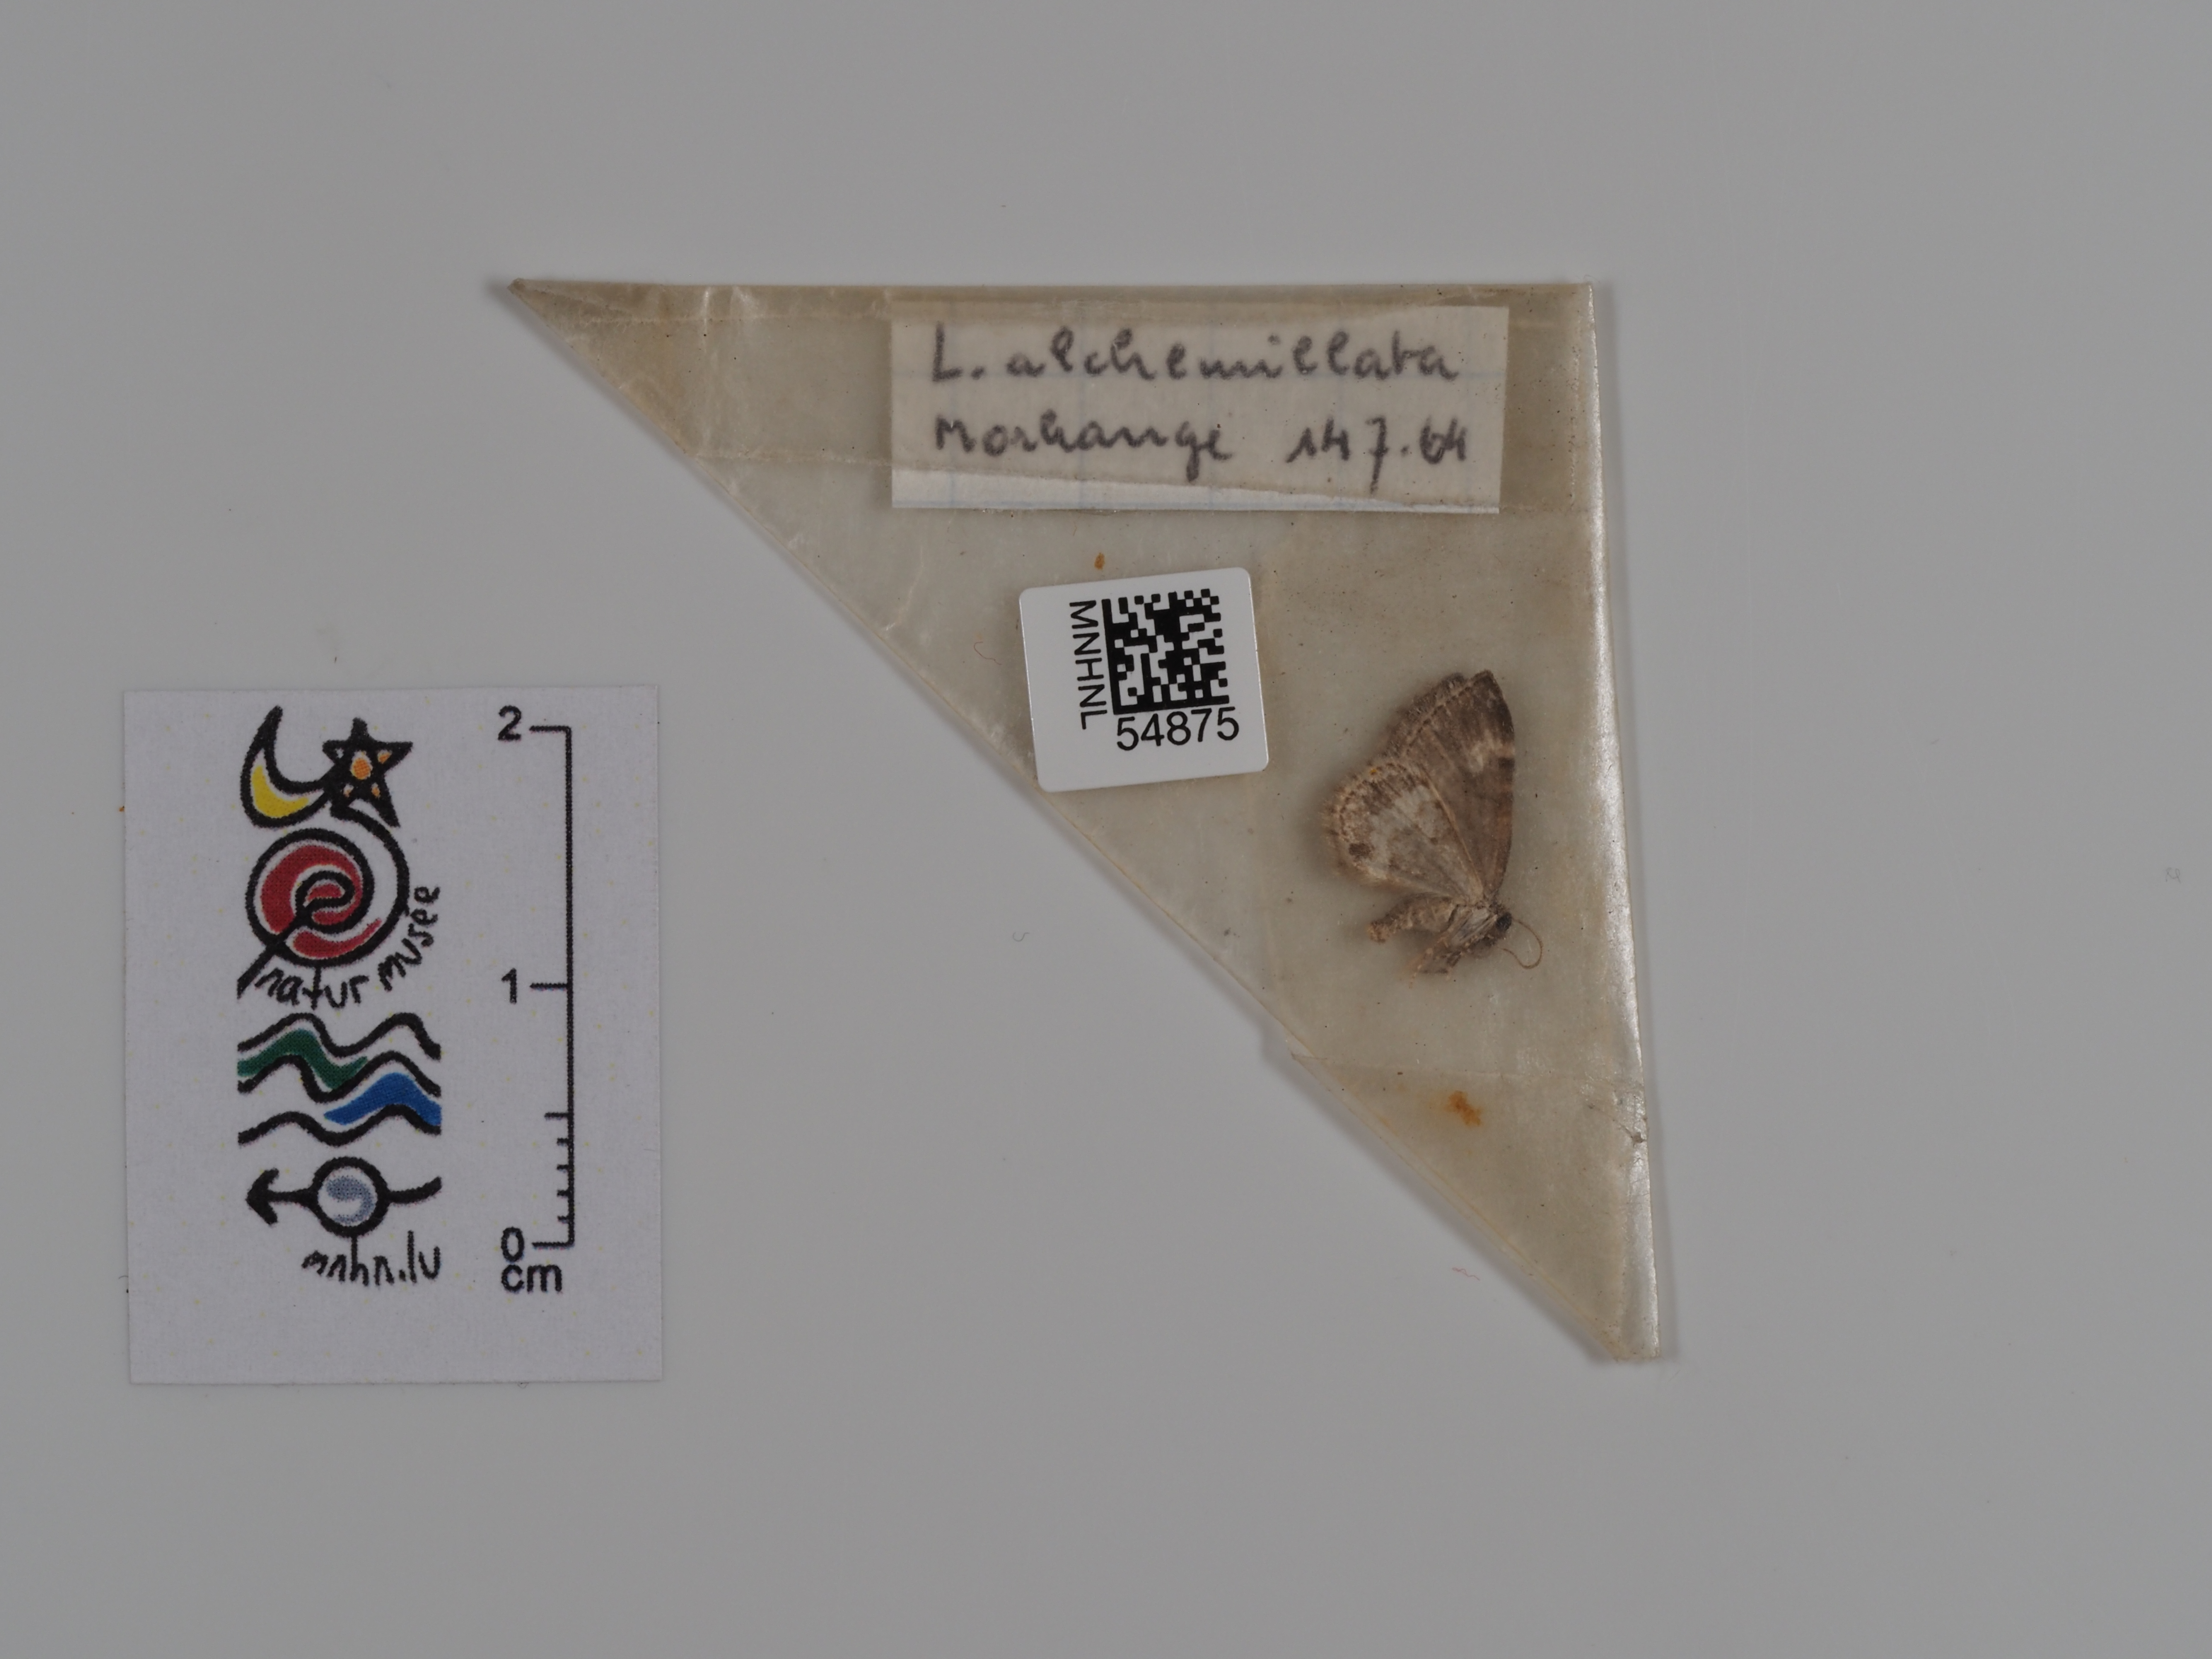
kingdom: Animalia
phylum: Arthropoda
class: Insecta
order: Lepidoptera
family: Geometridae
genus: Perizoma
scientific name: Perizoma alchemillata
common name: Small rivulet
